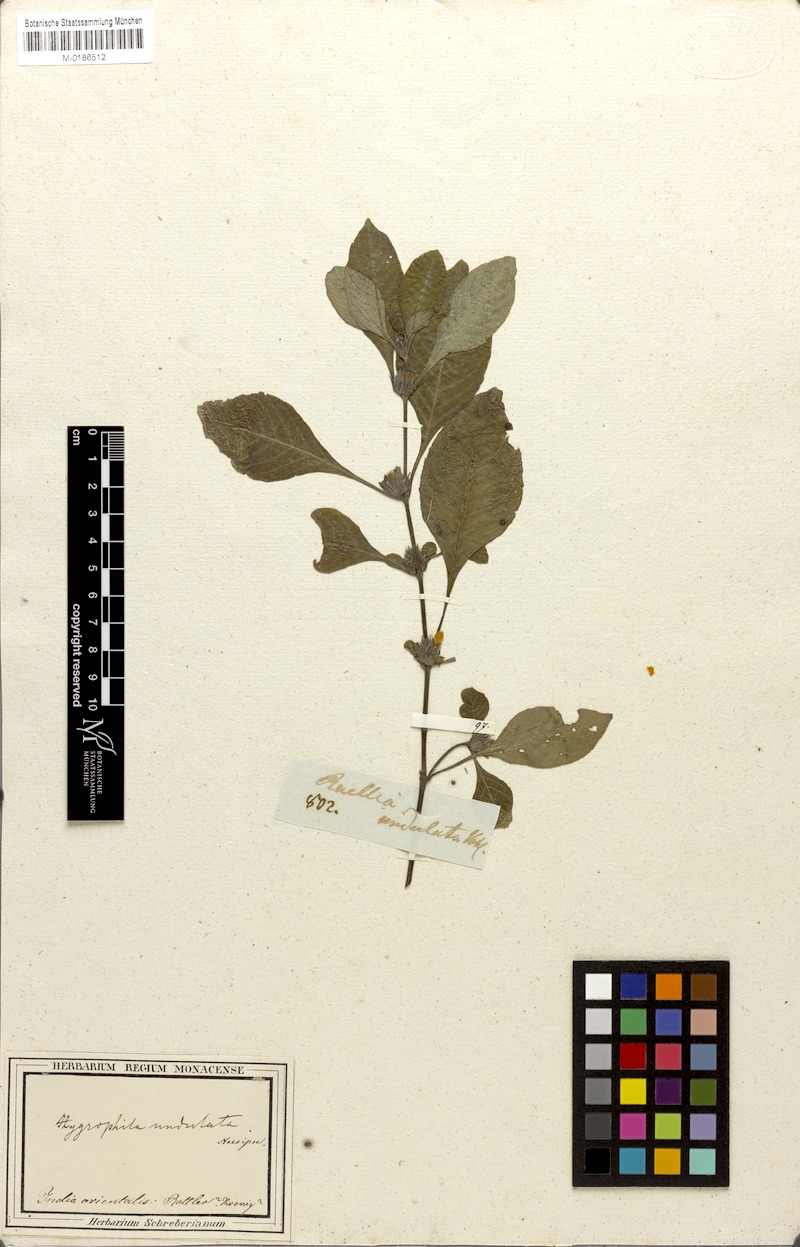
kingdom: Plantae
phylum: Tracheophyta
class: Magnoliopsida
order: Lamiales
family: Acanthaceae
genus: Hygrophila
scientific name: Hygrophila ringens
